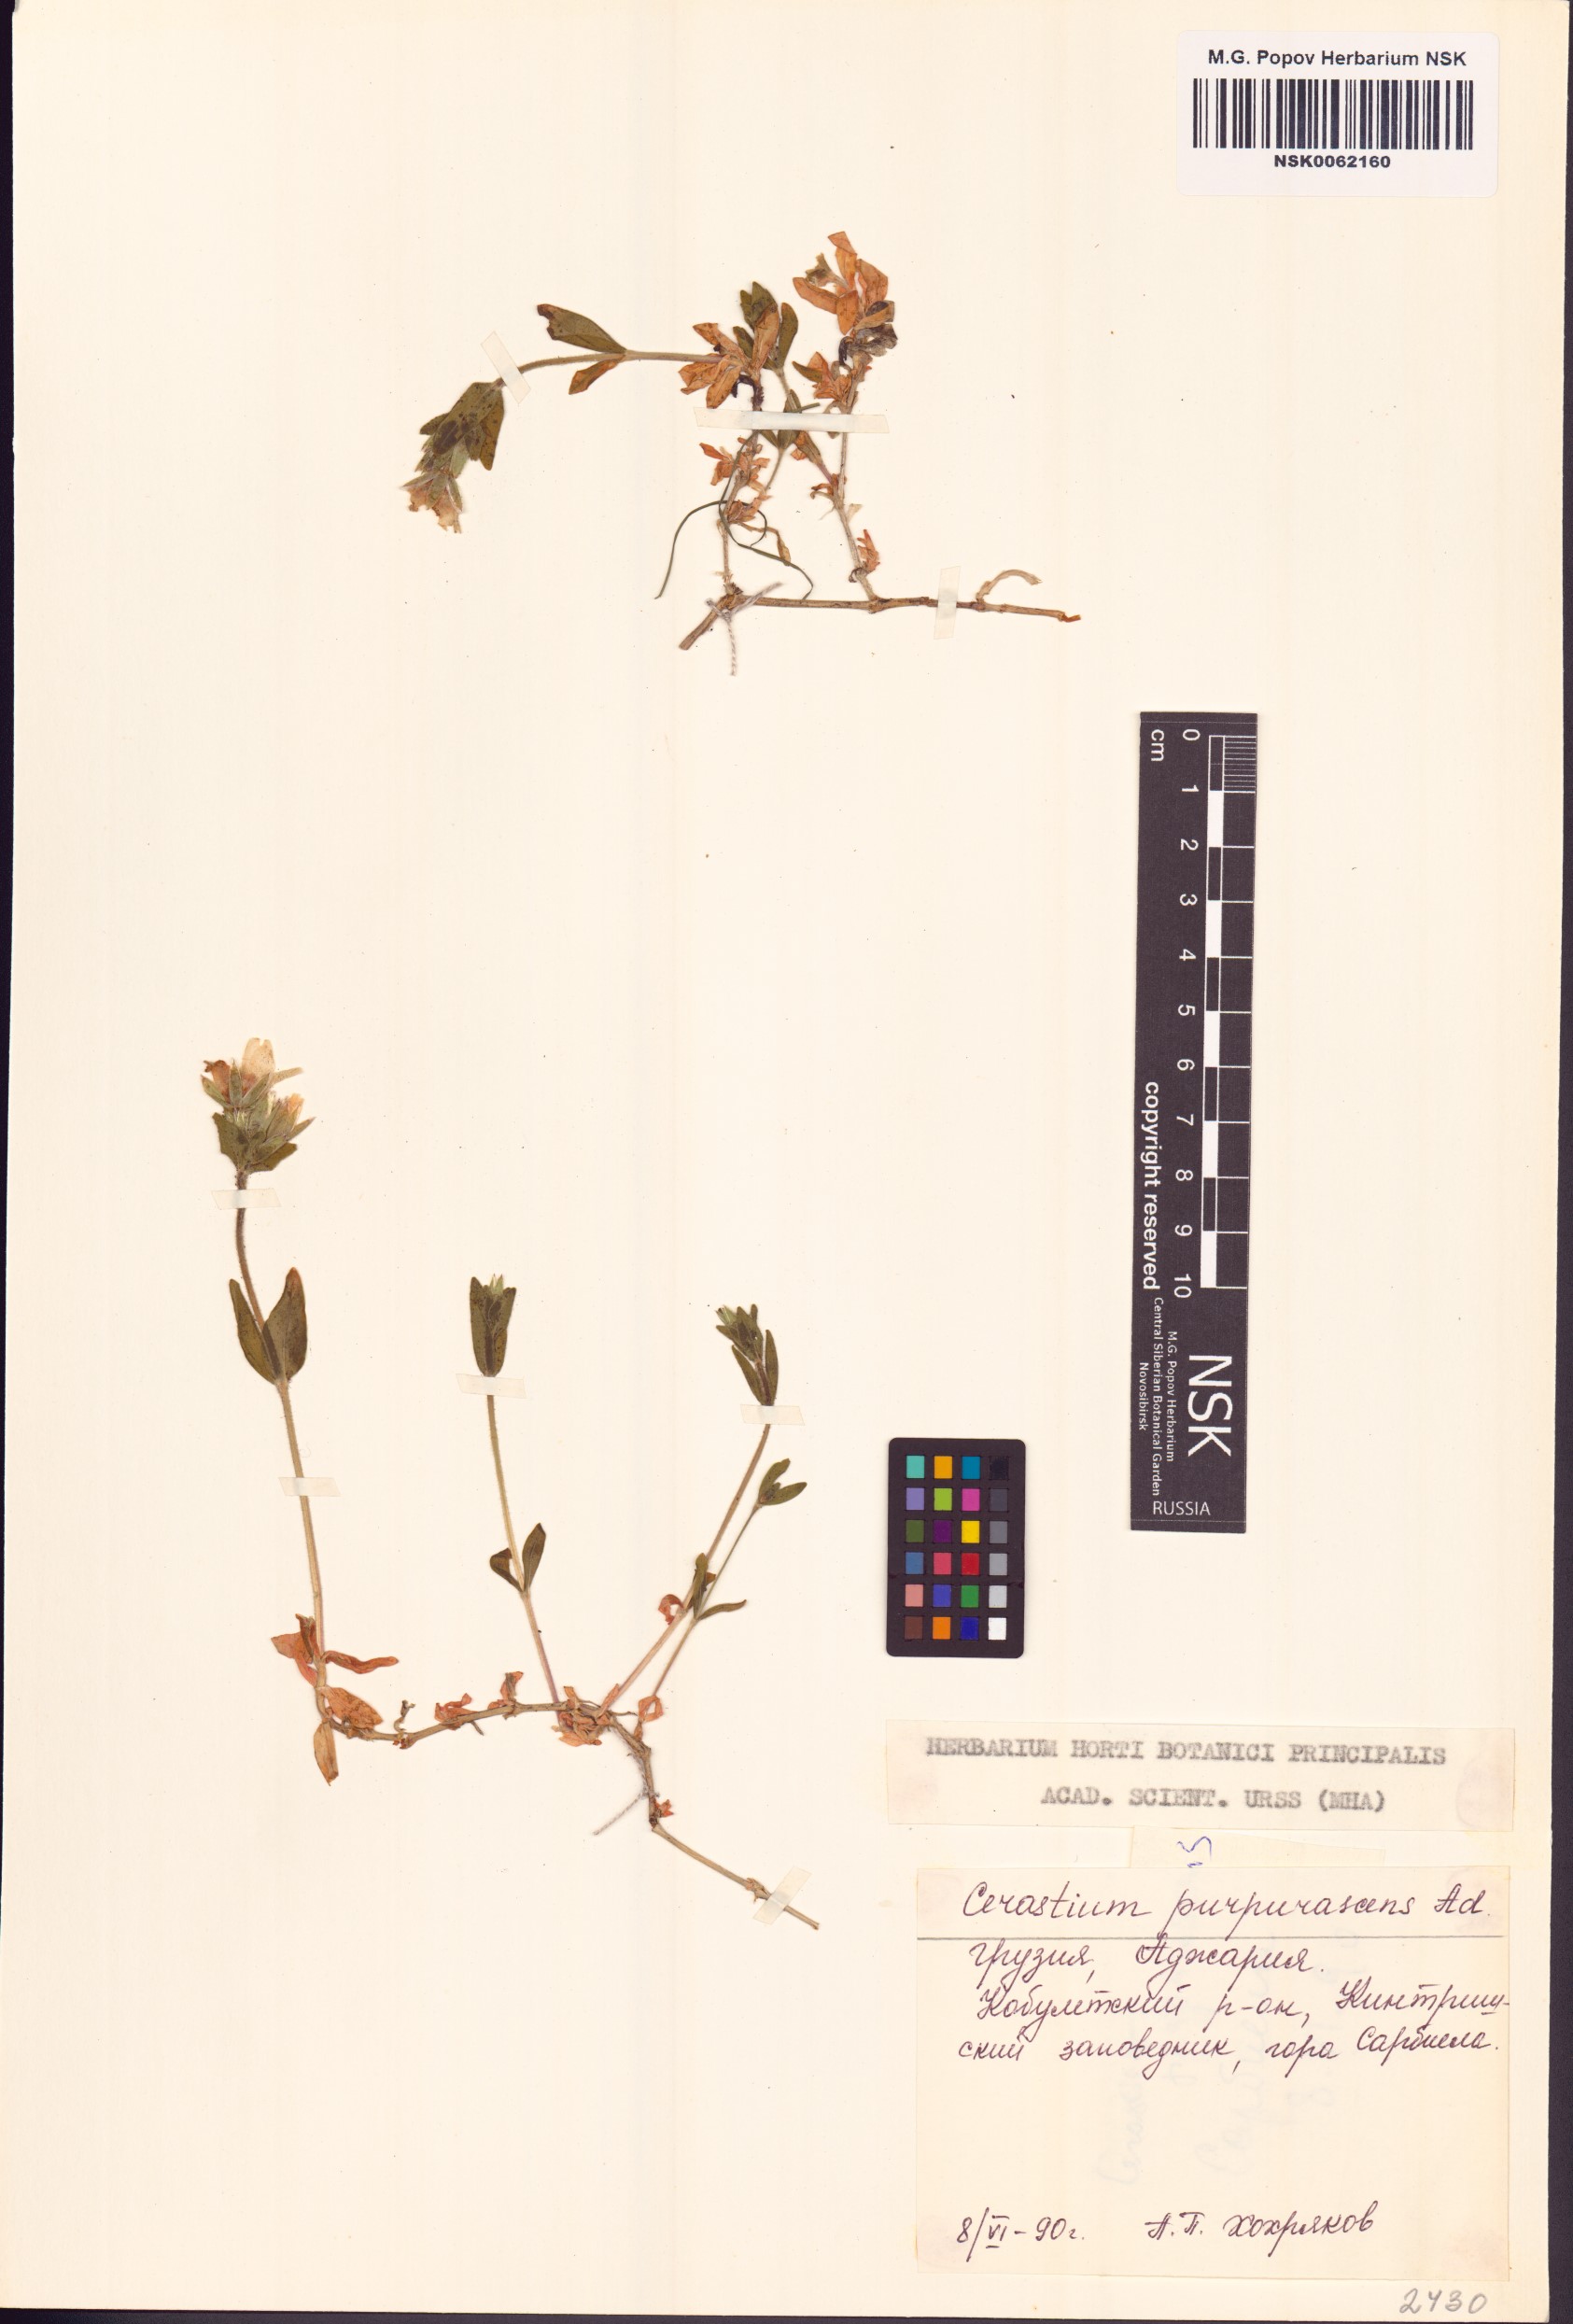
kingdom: Plantae
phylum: Tracheophyta
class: Magnoliopsida
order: Caryophyllales
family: Caryophyllaceae
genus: Arenaria
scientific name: Arenaria purpurascens
